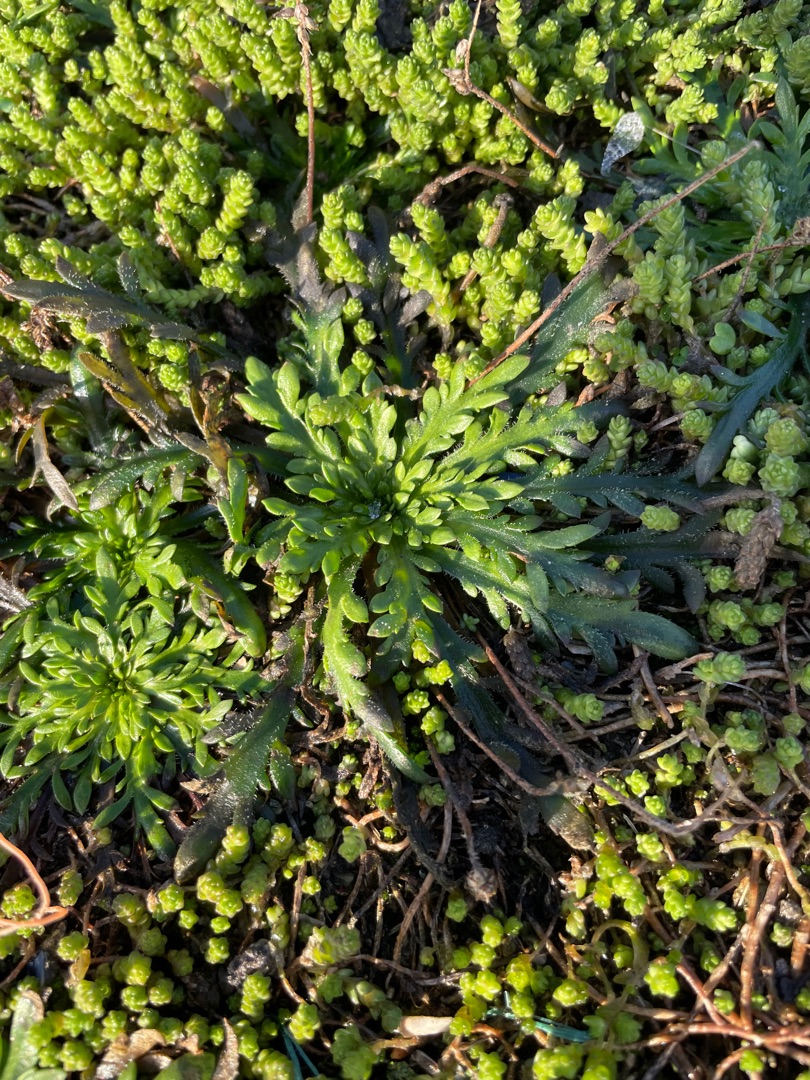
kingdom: Plantae
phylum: Tracheophyta
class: Magnoliopsida
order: Lamiales
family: Plantaginaceae
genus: Plantago
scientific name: Plantago coronopus
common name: Fliget vejbred
